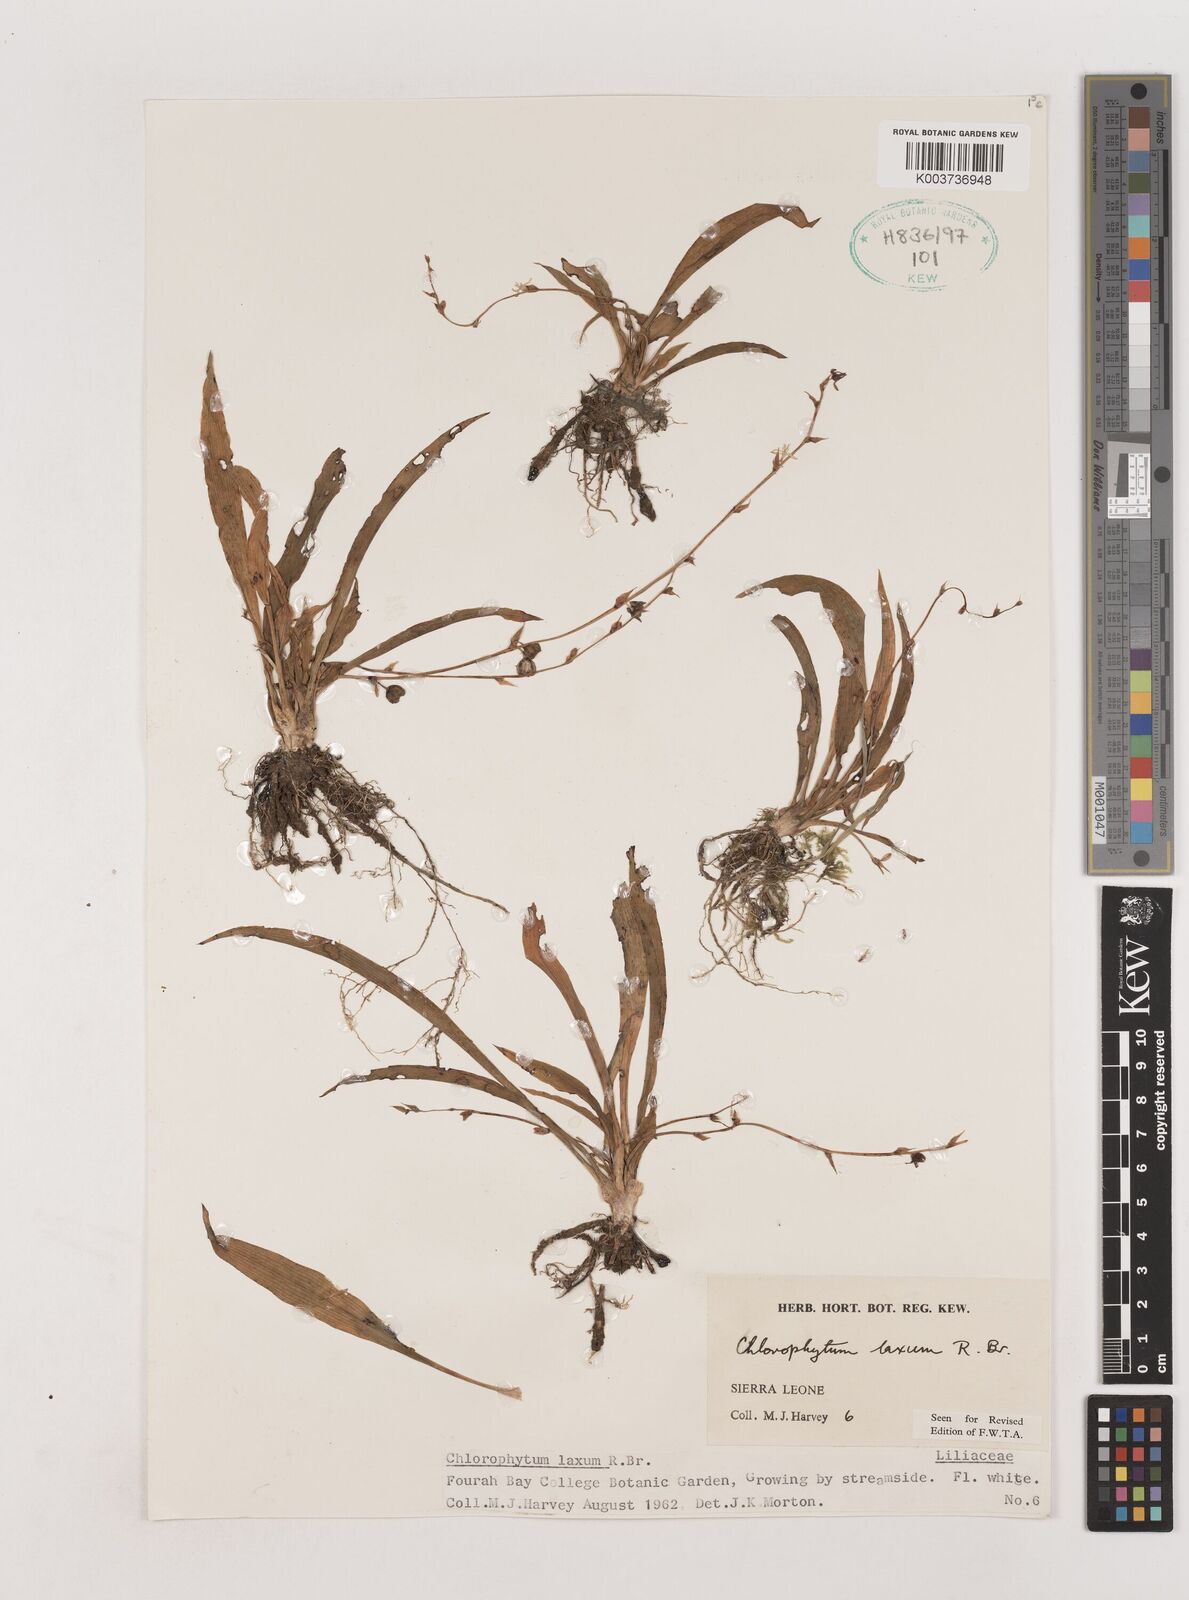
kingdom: Plantae
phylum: Tracheophyta
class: Liliopsida
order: Asparagales
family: Asparagaceae
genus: Chlorophytum
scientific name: Chlorophytum laxum
